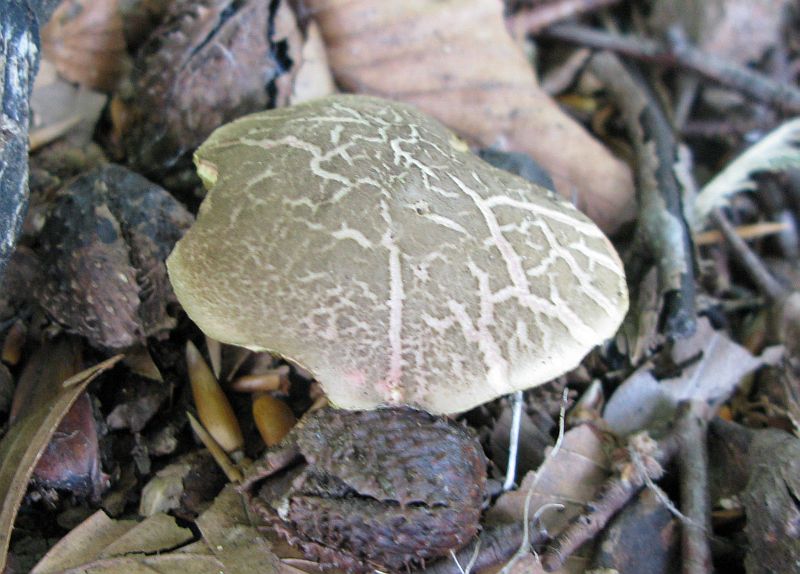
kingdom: Fungi
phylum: Basidiomycota
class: Agaricomycetes
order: Boletales
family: Boletaceae
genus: Xerocomellus
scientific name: Xerocomellus chrysenteron
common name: rødsprukken rørhat
